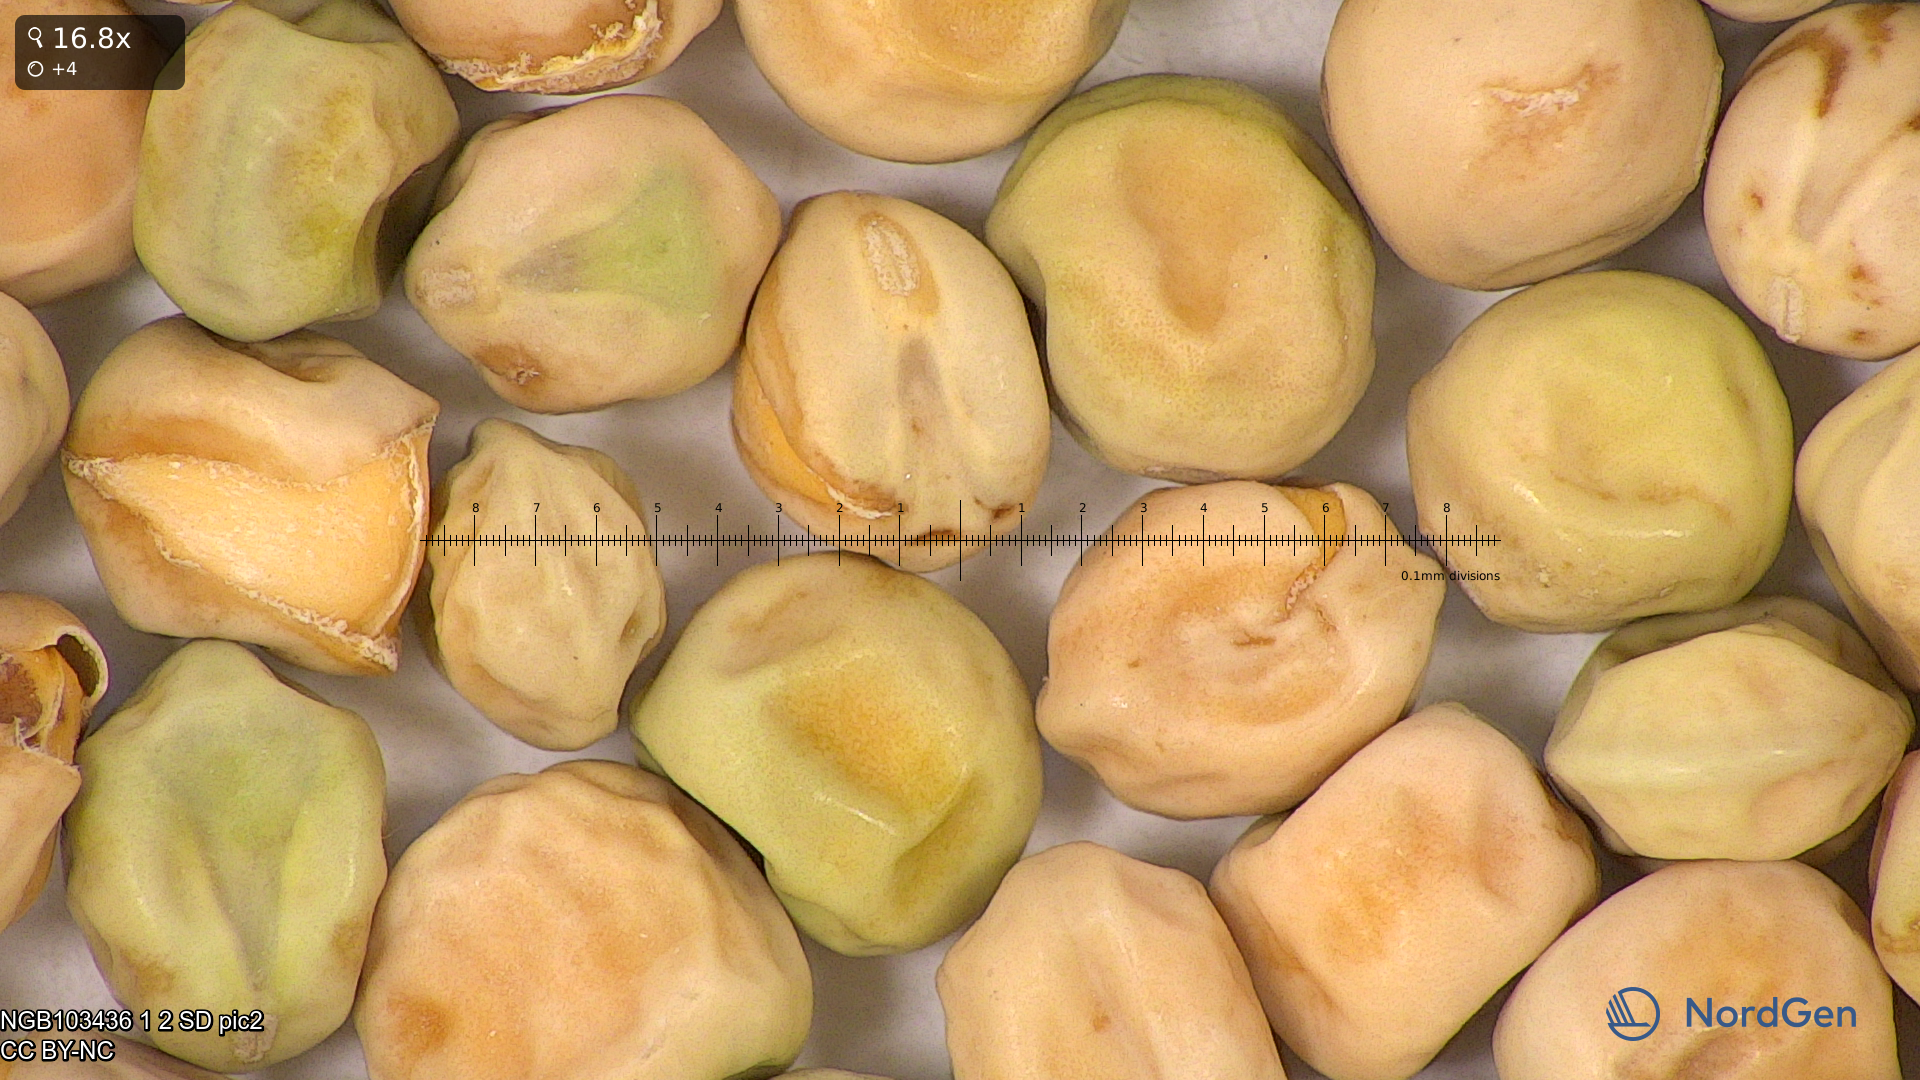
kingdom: Plantae
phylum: Tracheophyta
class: Magnoliopsida
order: Fabales
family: Fabaceae
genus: Lathyrus
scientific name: Lathyrus oleraceus
